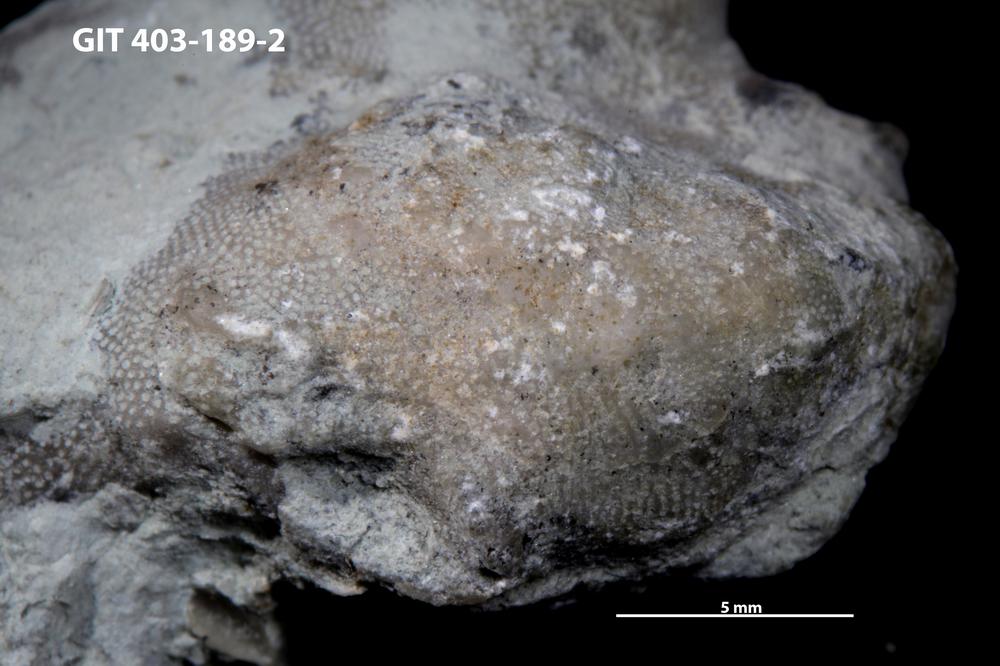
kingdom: Animalia
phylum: Bryozoa
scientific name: Bryozoa
